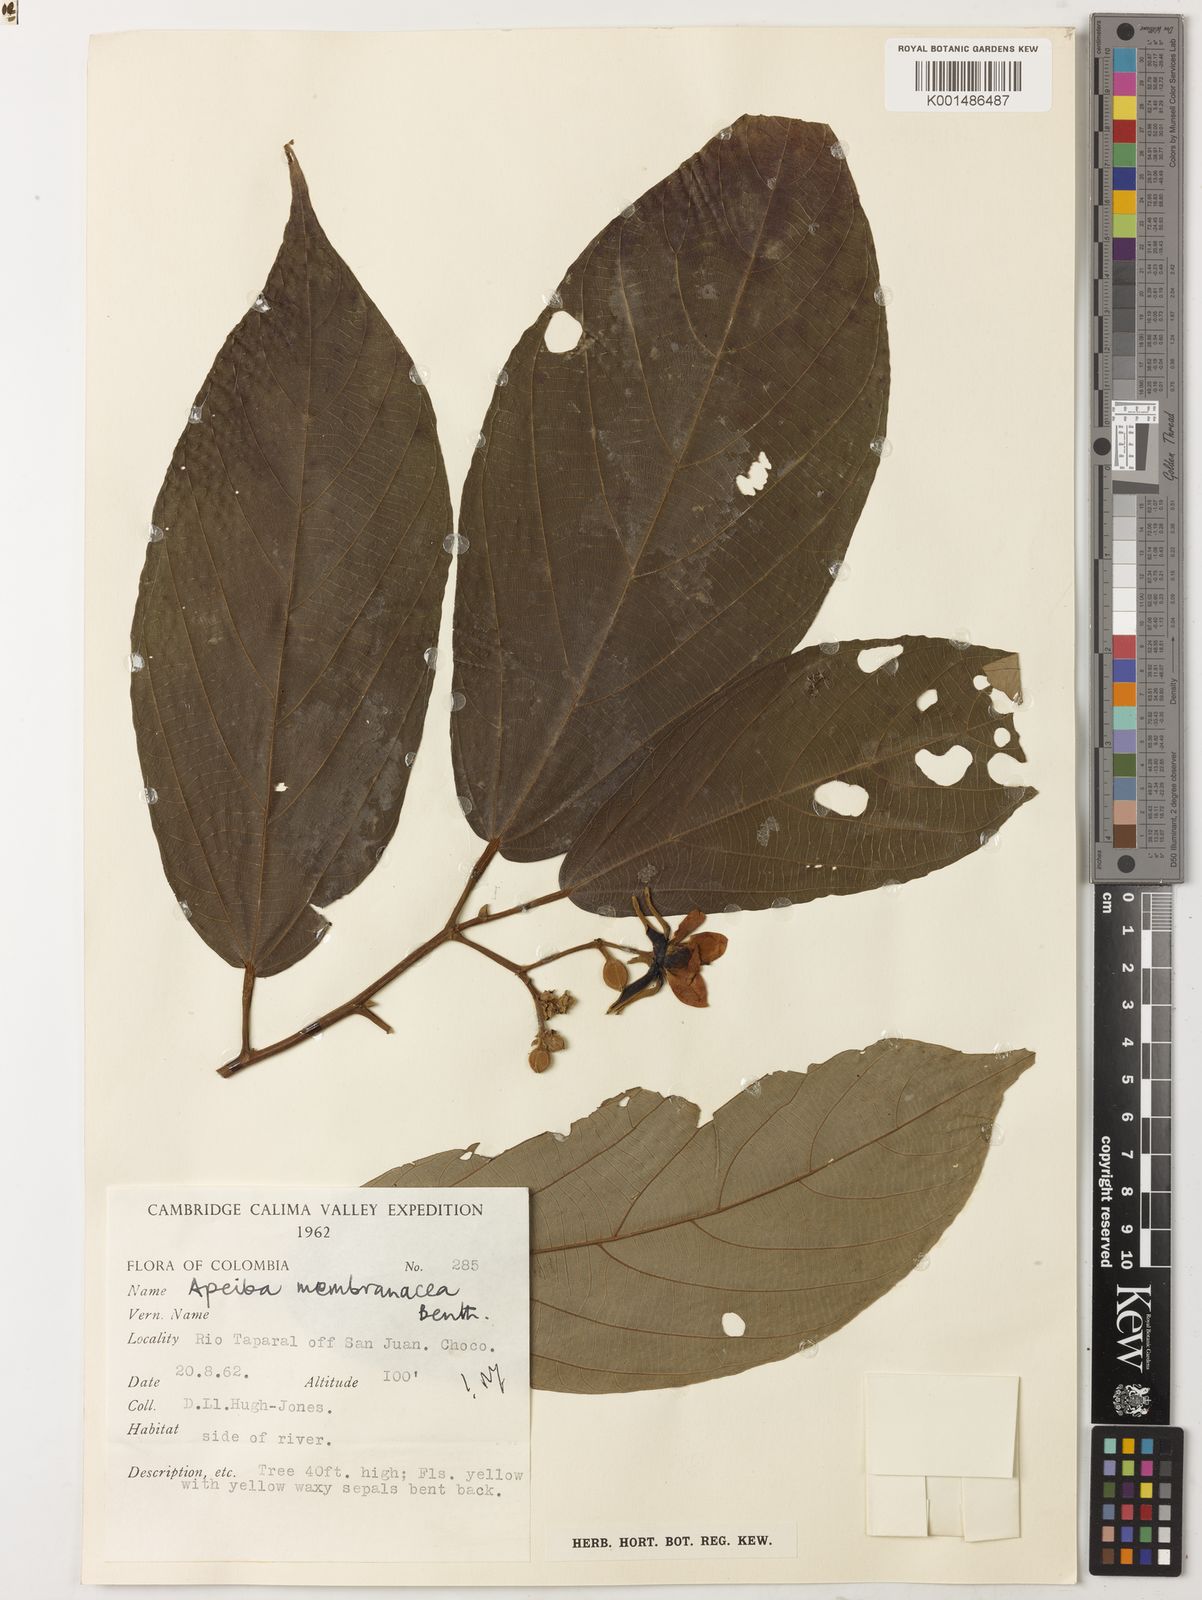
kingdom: Plantae
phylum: Tracheophyta
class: Magnoliopsida
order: Malvales
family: Malvaceae
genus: Apeiba
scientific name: Apeiba membranacea
